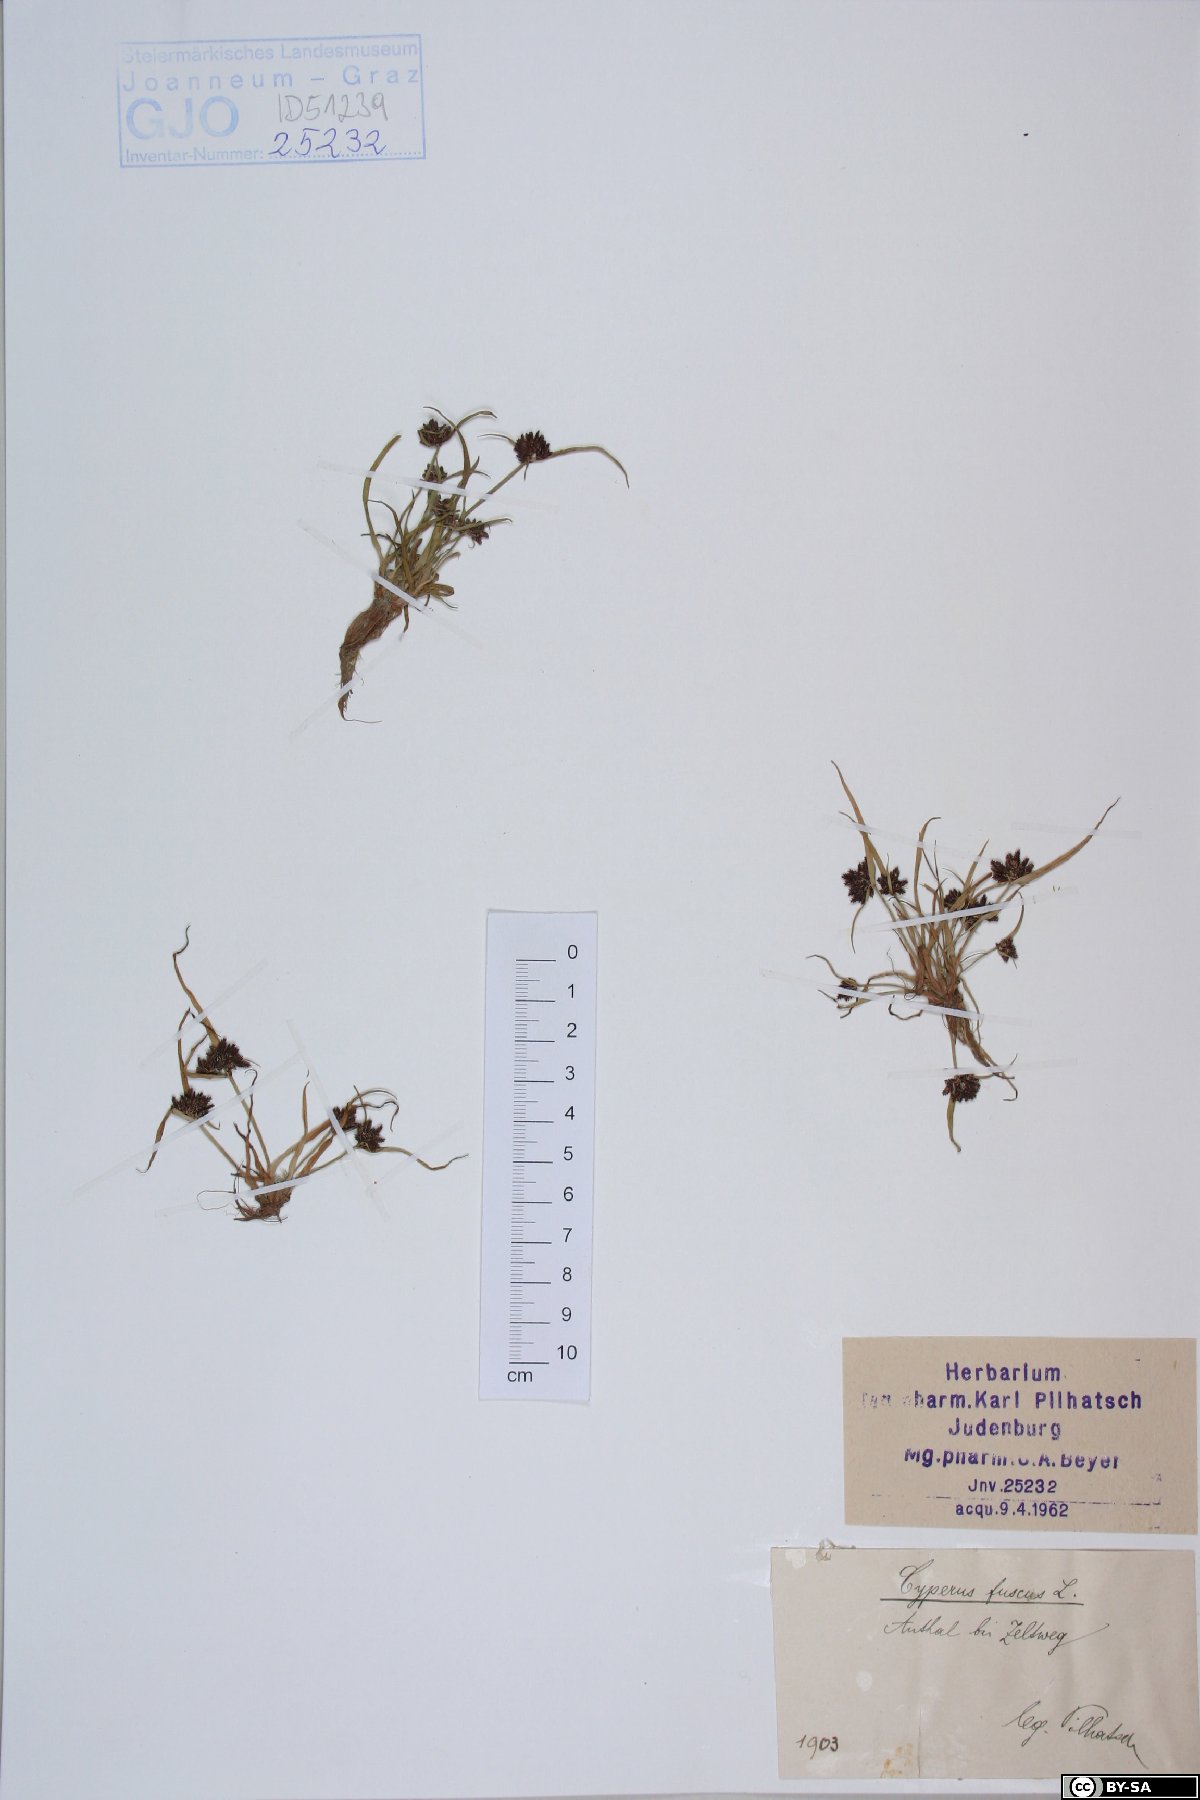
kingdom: Plantae
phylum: Tracheophyta
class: Liliopsida
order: Poales
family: Cyperaceae
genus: Cyperus
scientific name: Cyperus fuscus
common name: Brown galingale
